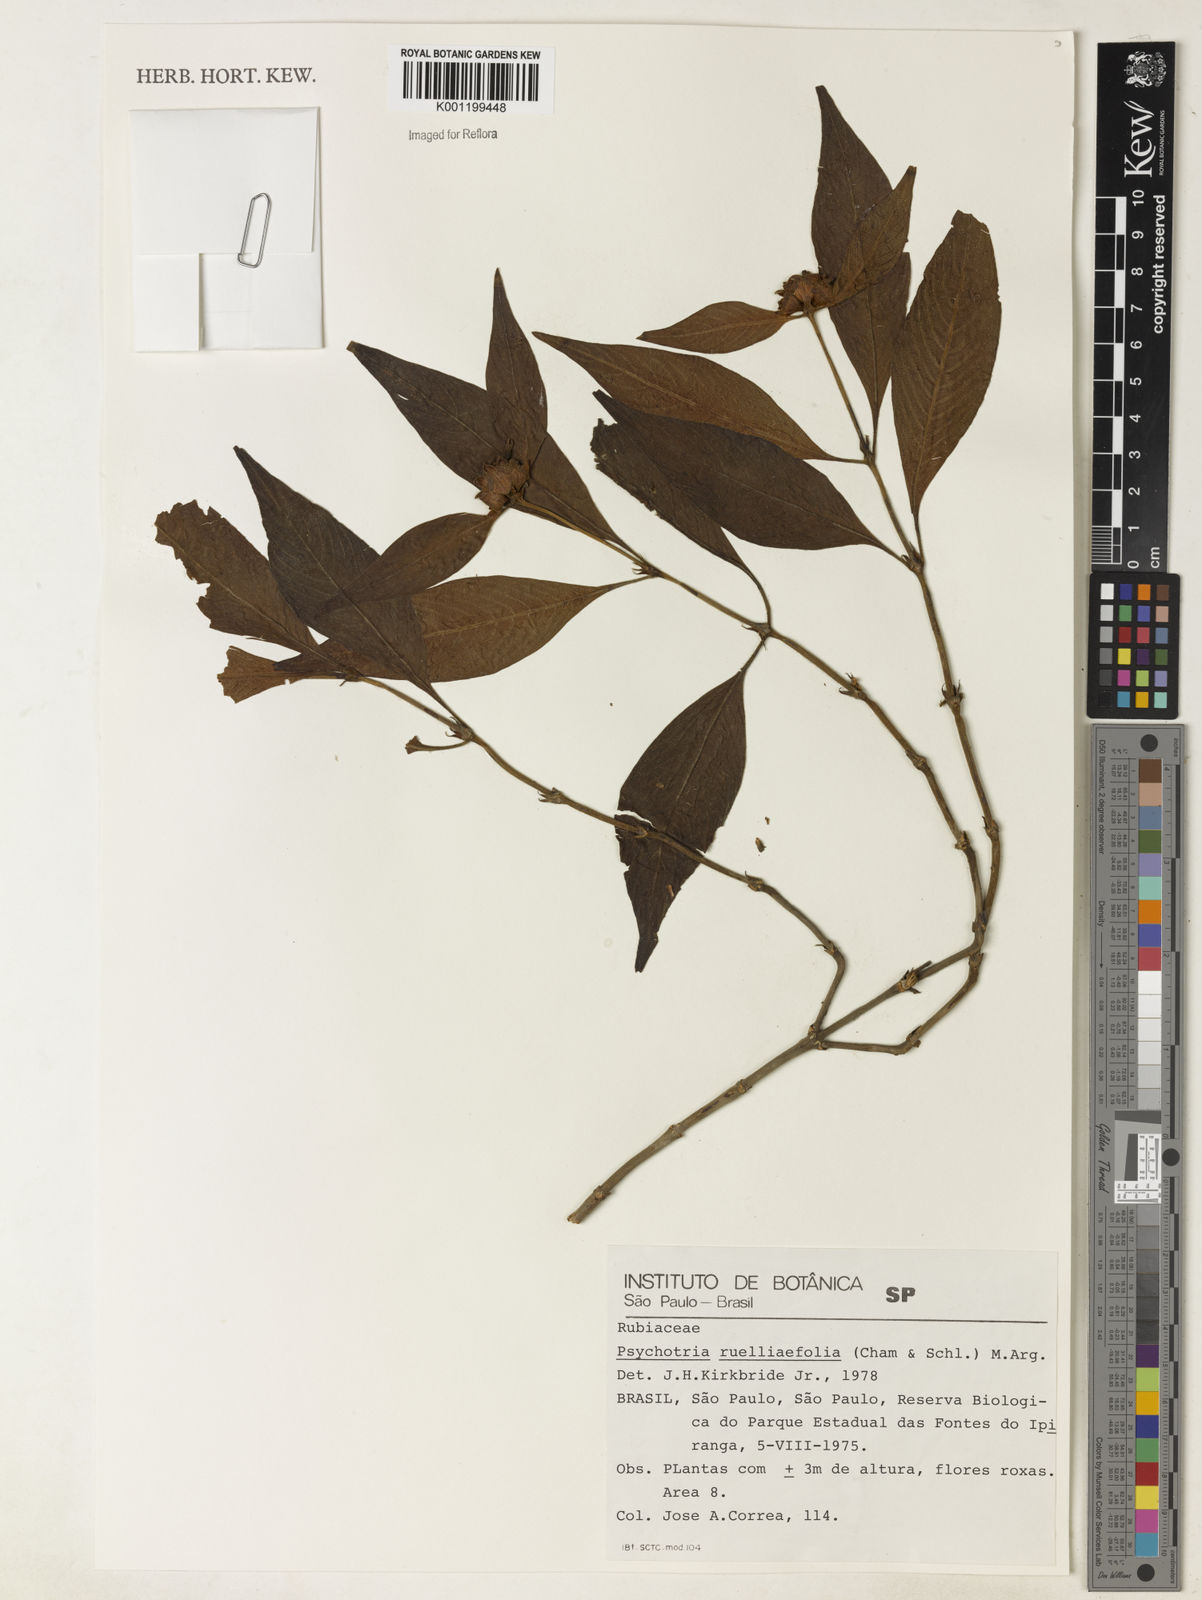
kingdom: Plantae
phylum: Tracheophyta
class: Magnoliopsida
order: Gentianales
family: Rubiaceae
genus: Psychotria
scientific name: Psychotria
